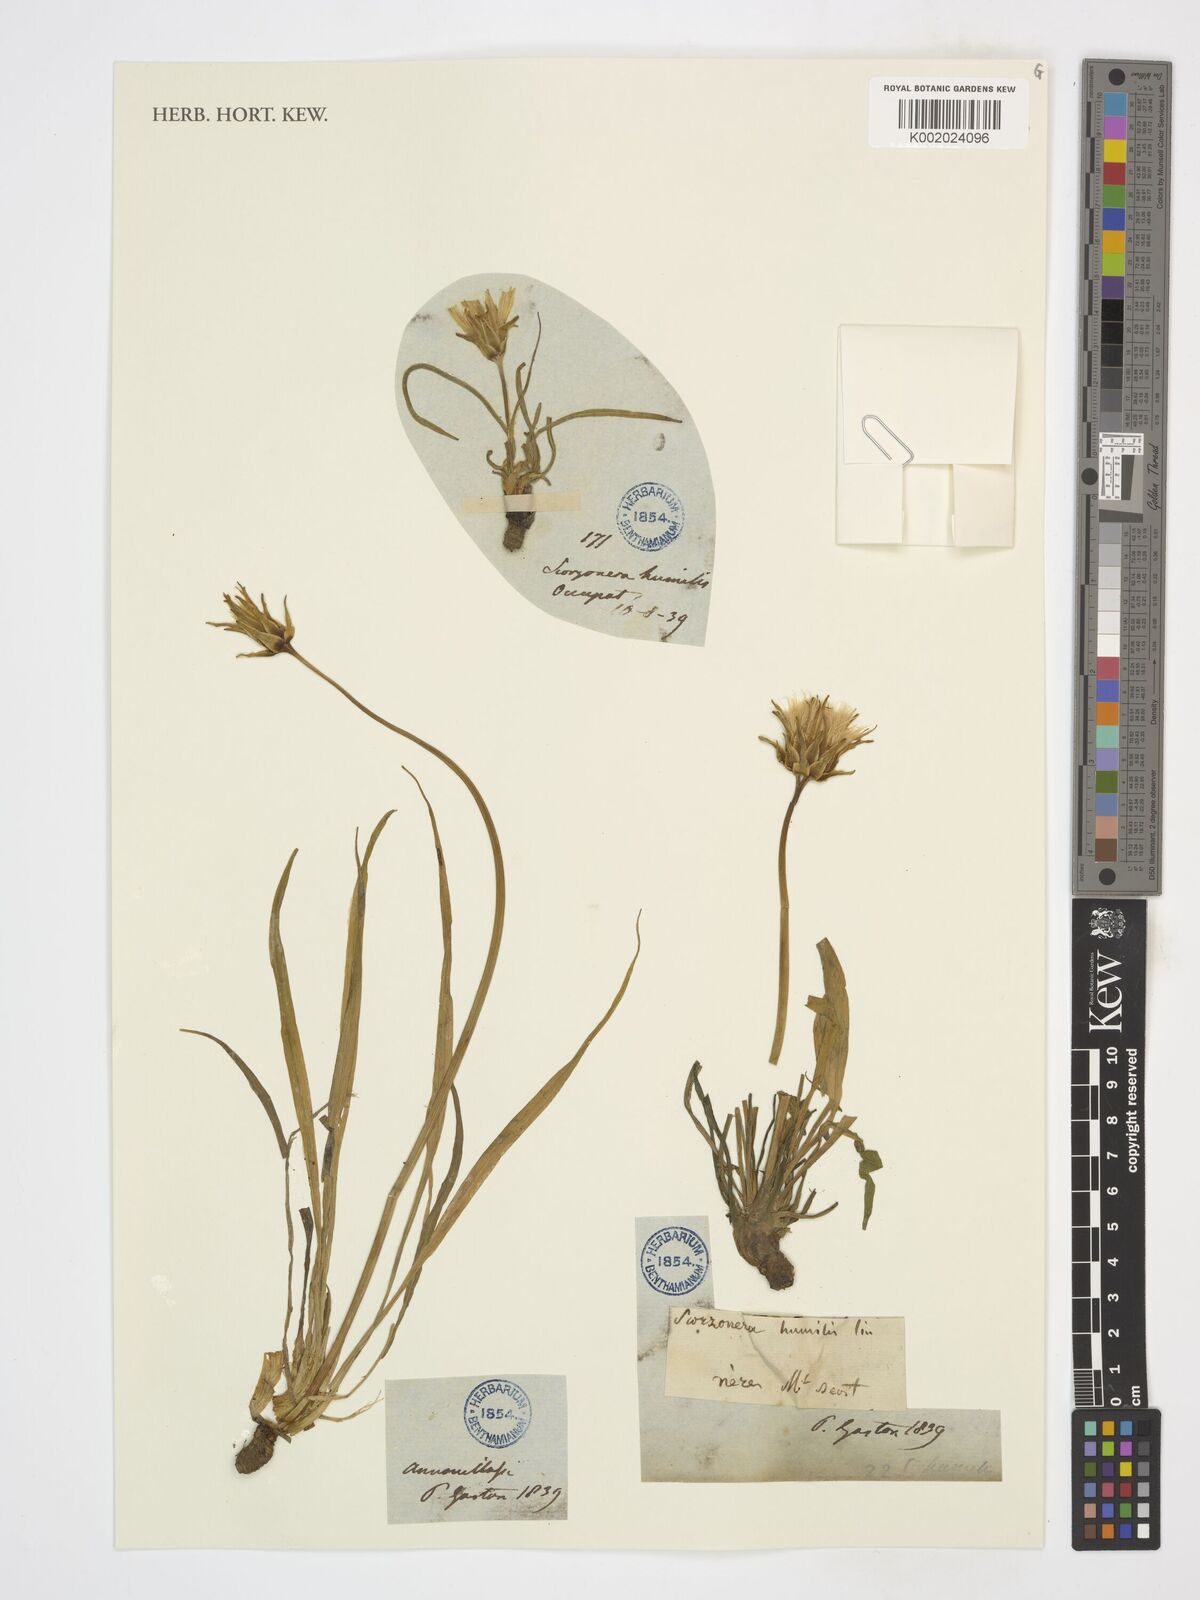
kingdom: Plantae
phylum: Tracheophyta
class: Magnoliopsida
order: Asterales
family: Asteraceae
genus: Scorzonera
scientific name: Scorzonera humilis
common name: Viper's-grass
